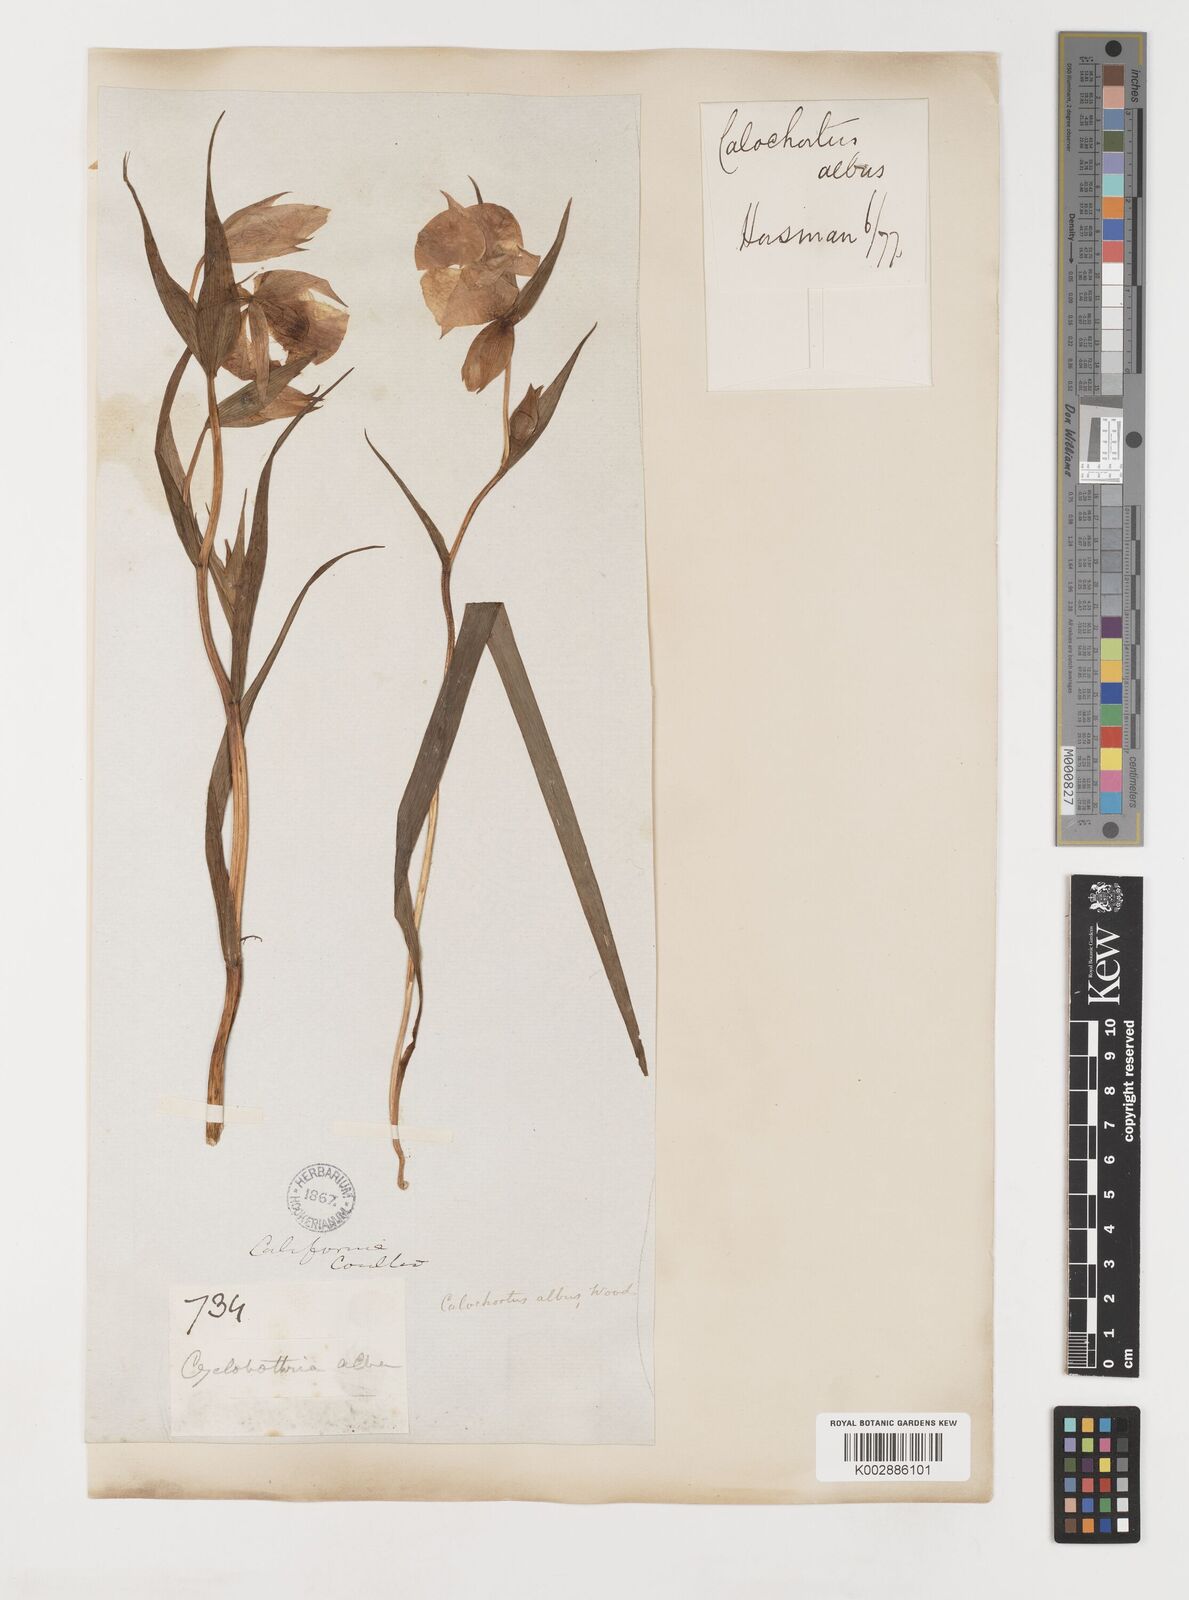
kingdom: Plantae
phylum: Tracheophyta
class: Liliopsida
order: Liliales
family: Liliaceae
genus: Calochortus
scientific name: Calochortus albus
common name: Fairy-lantern
